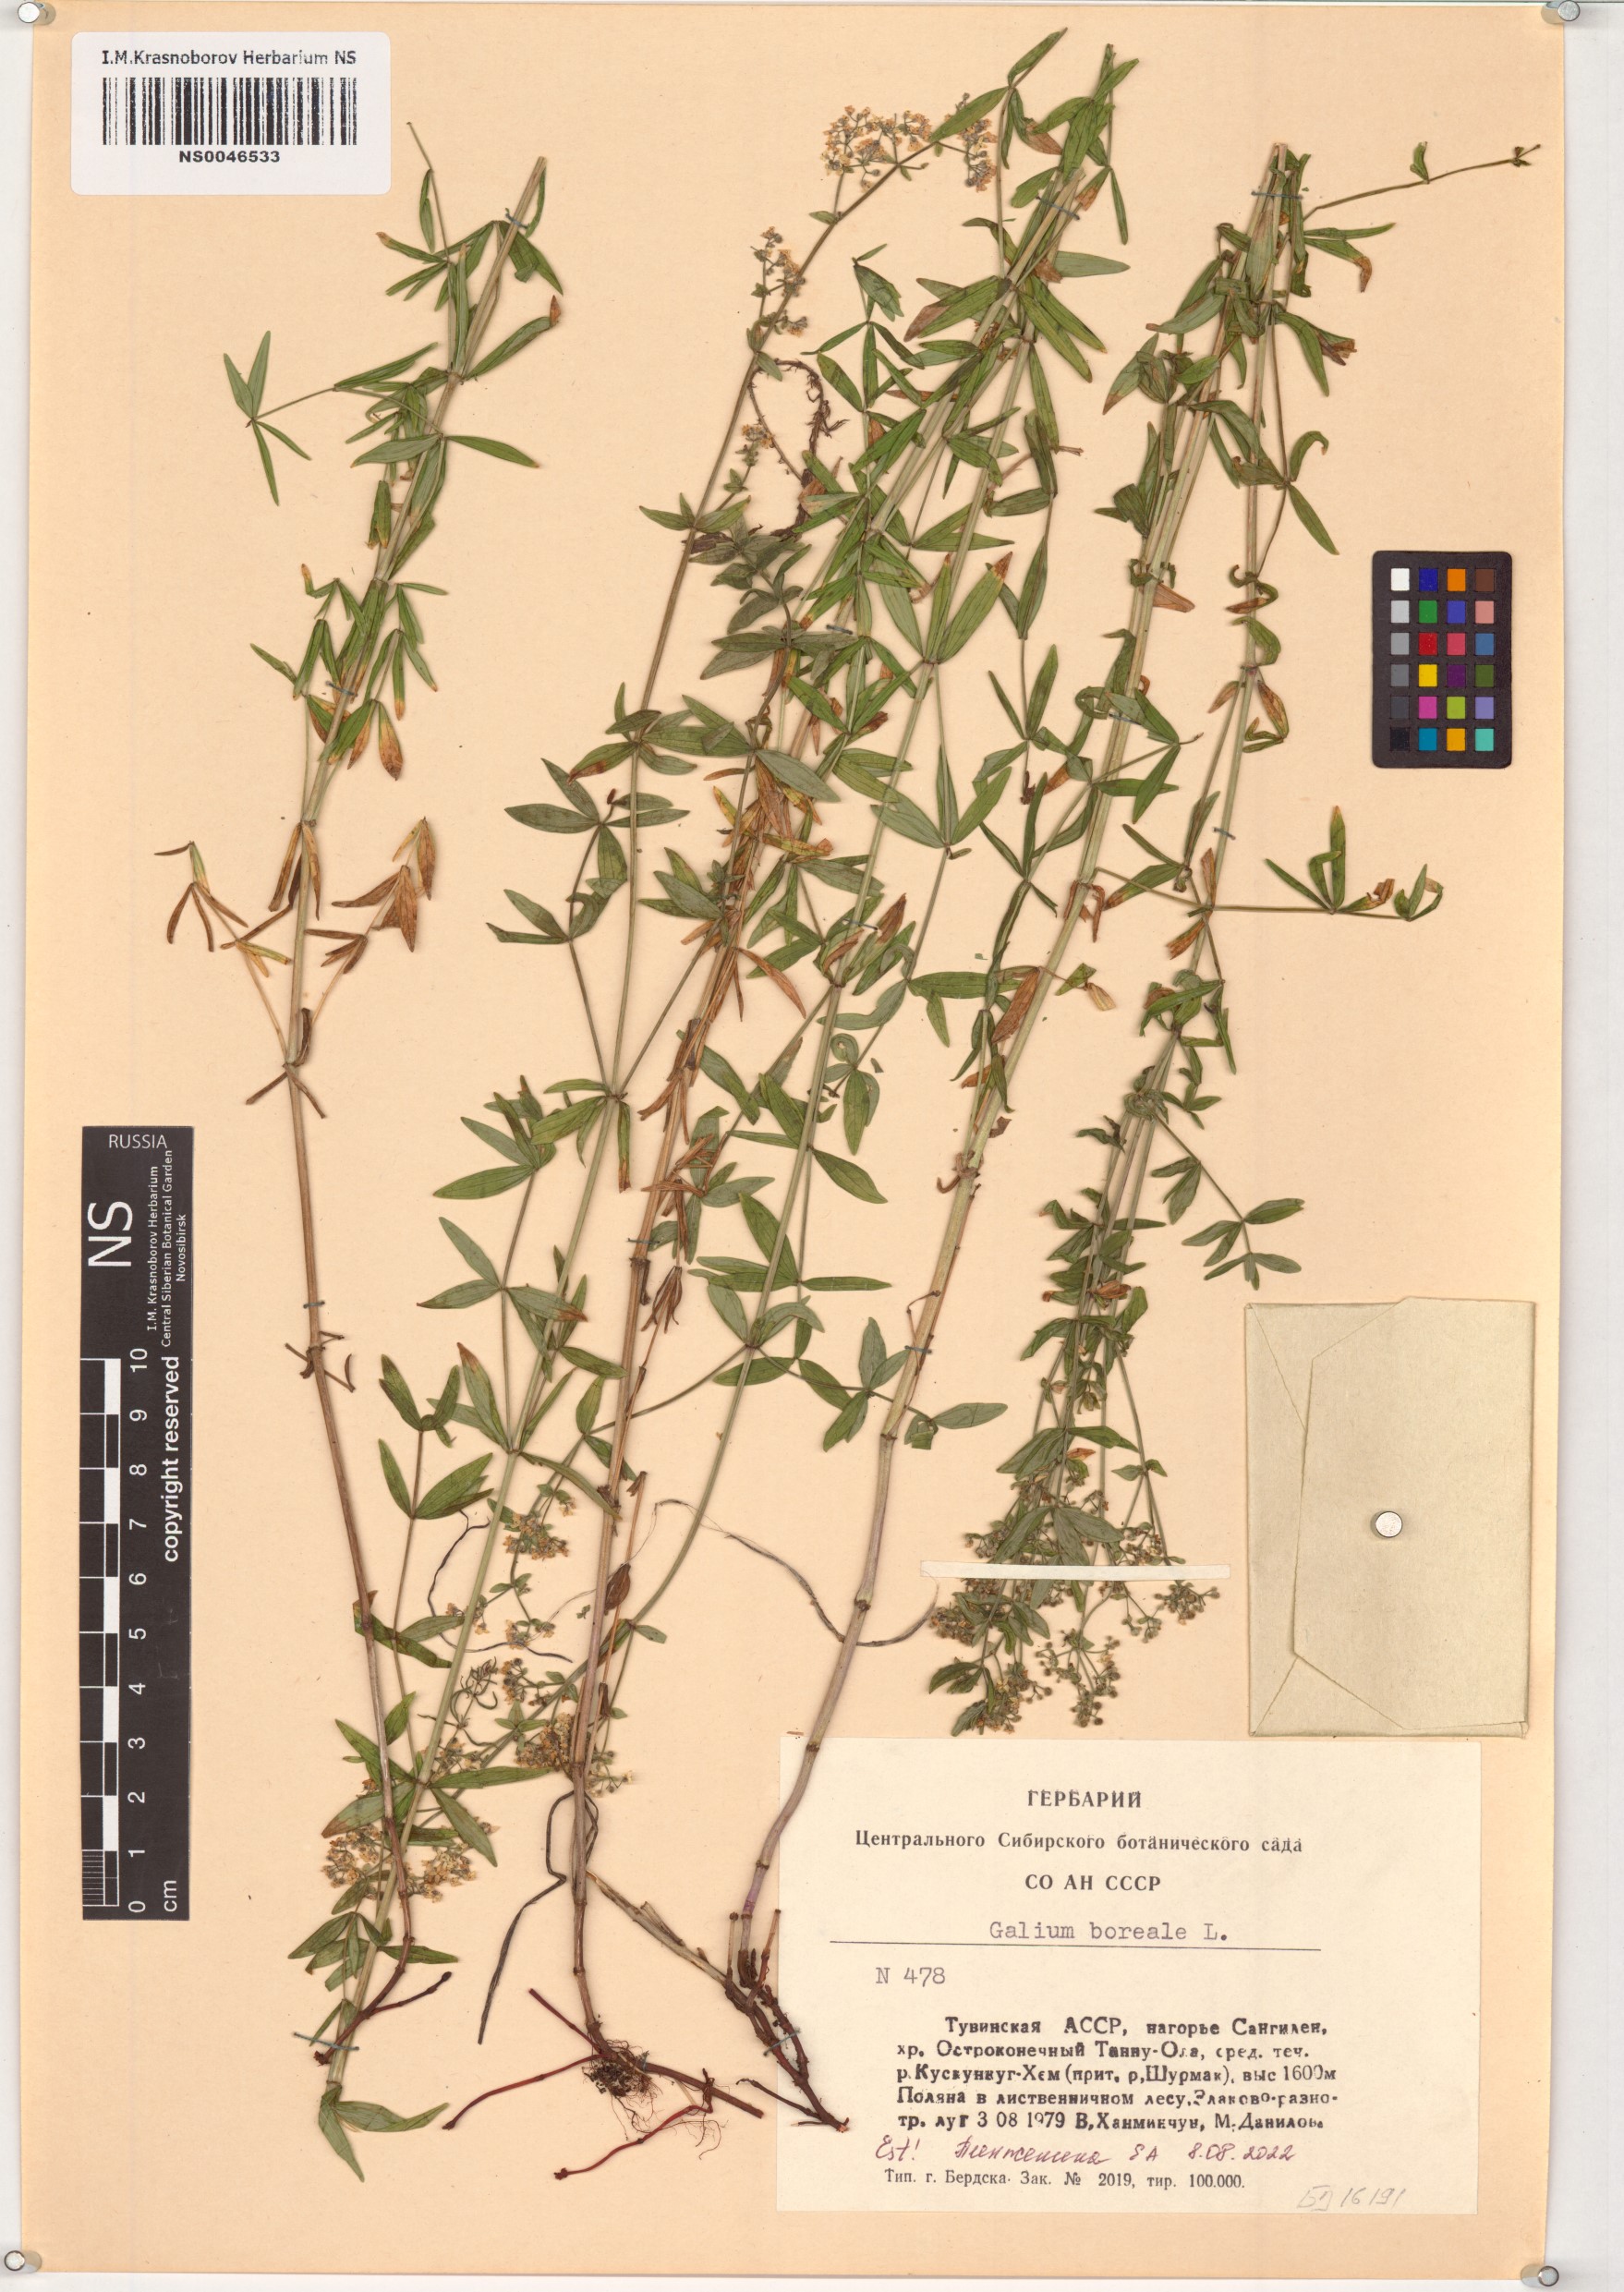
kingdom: Plantae
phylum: Tracheophyta
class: Magnoliopsida
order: Gentianales
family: Rubiaceae
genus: Galium
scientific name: Galium boreale
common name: Northern bedstraw
